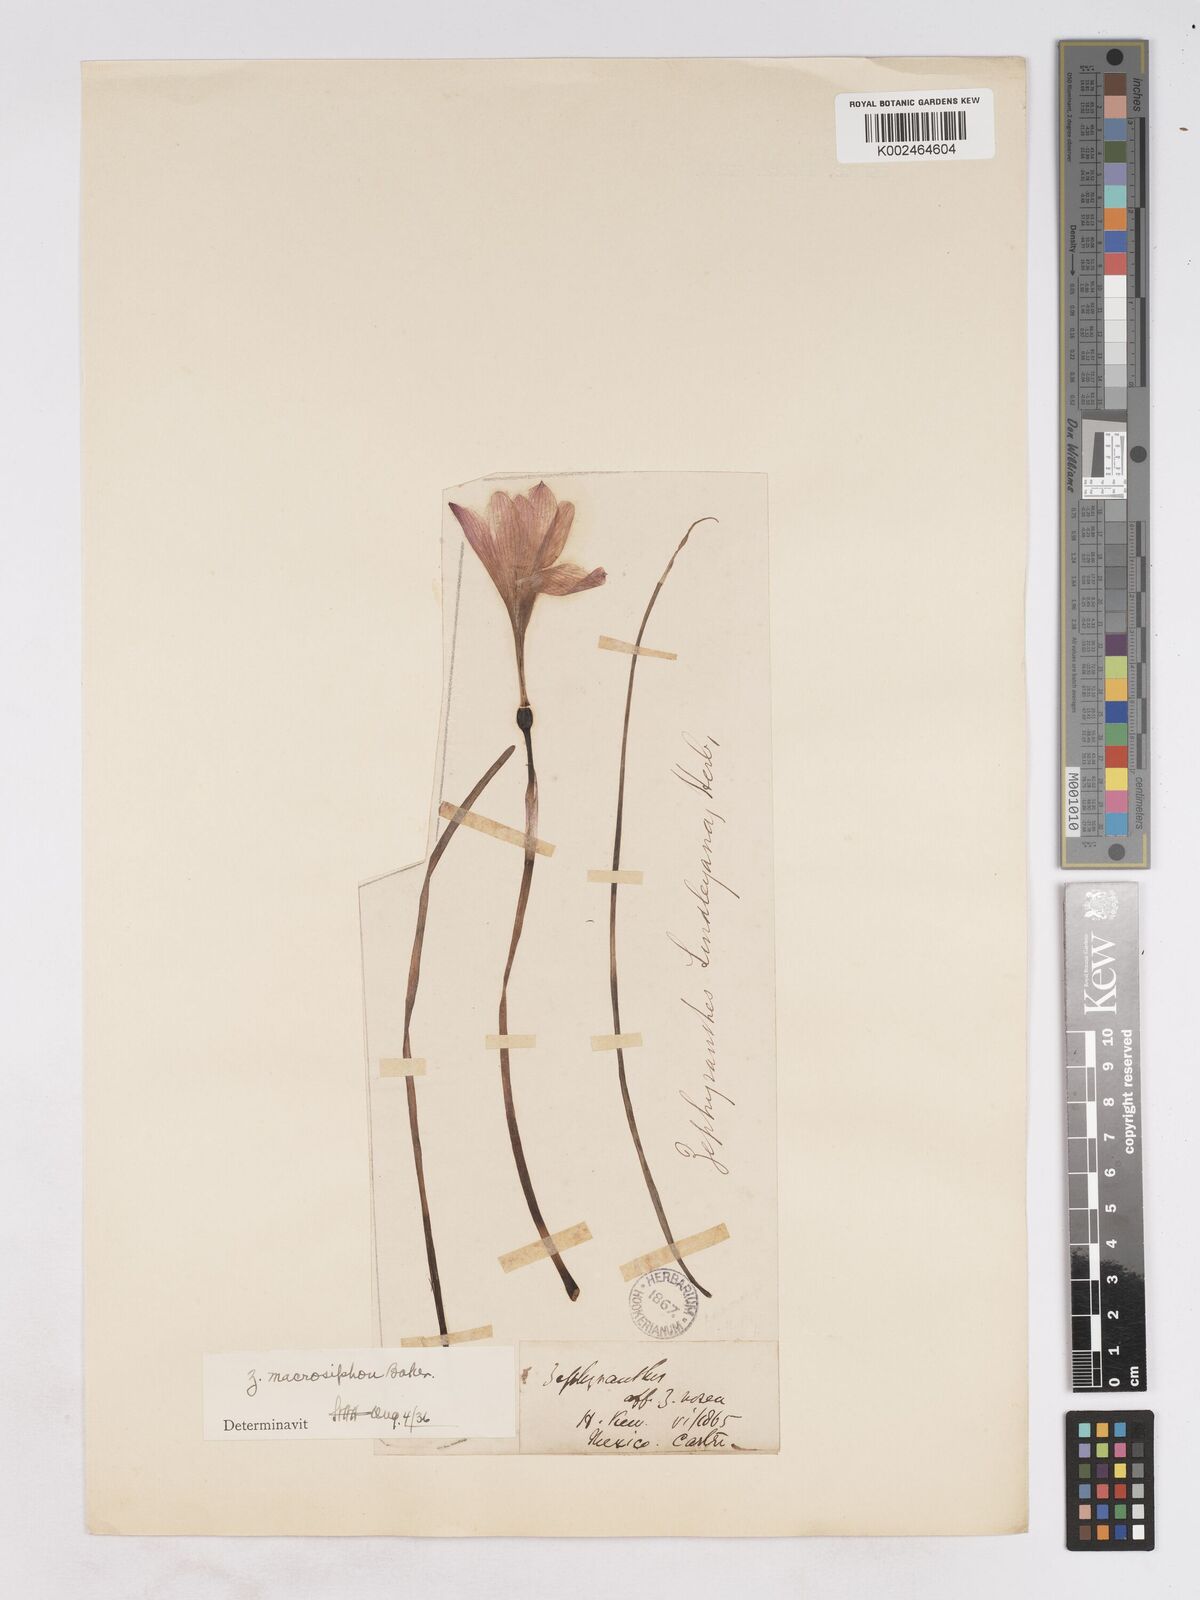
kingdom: Plantae
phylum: Tracheophyta
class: Liliopsida
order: Asparagales
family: Amaryllidaceae
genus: Zephyranthes
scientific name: Zephyranthes macrosiphon
